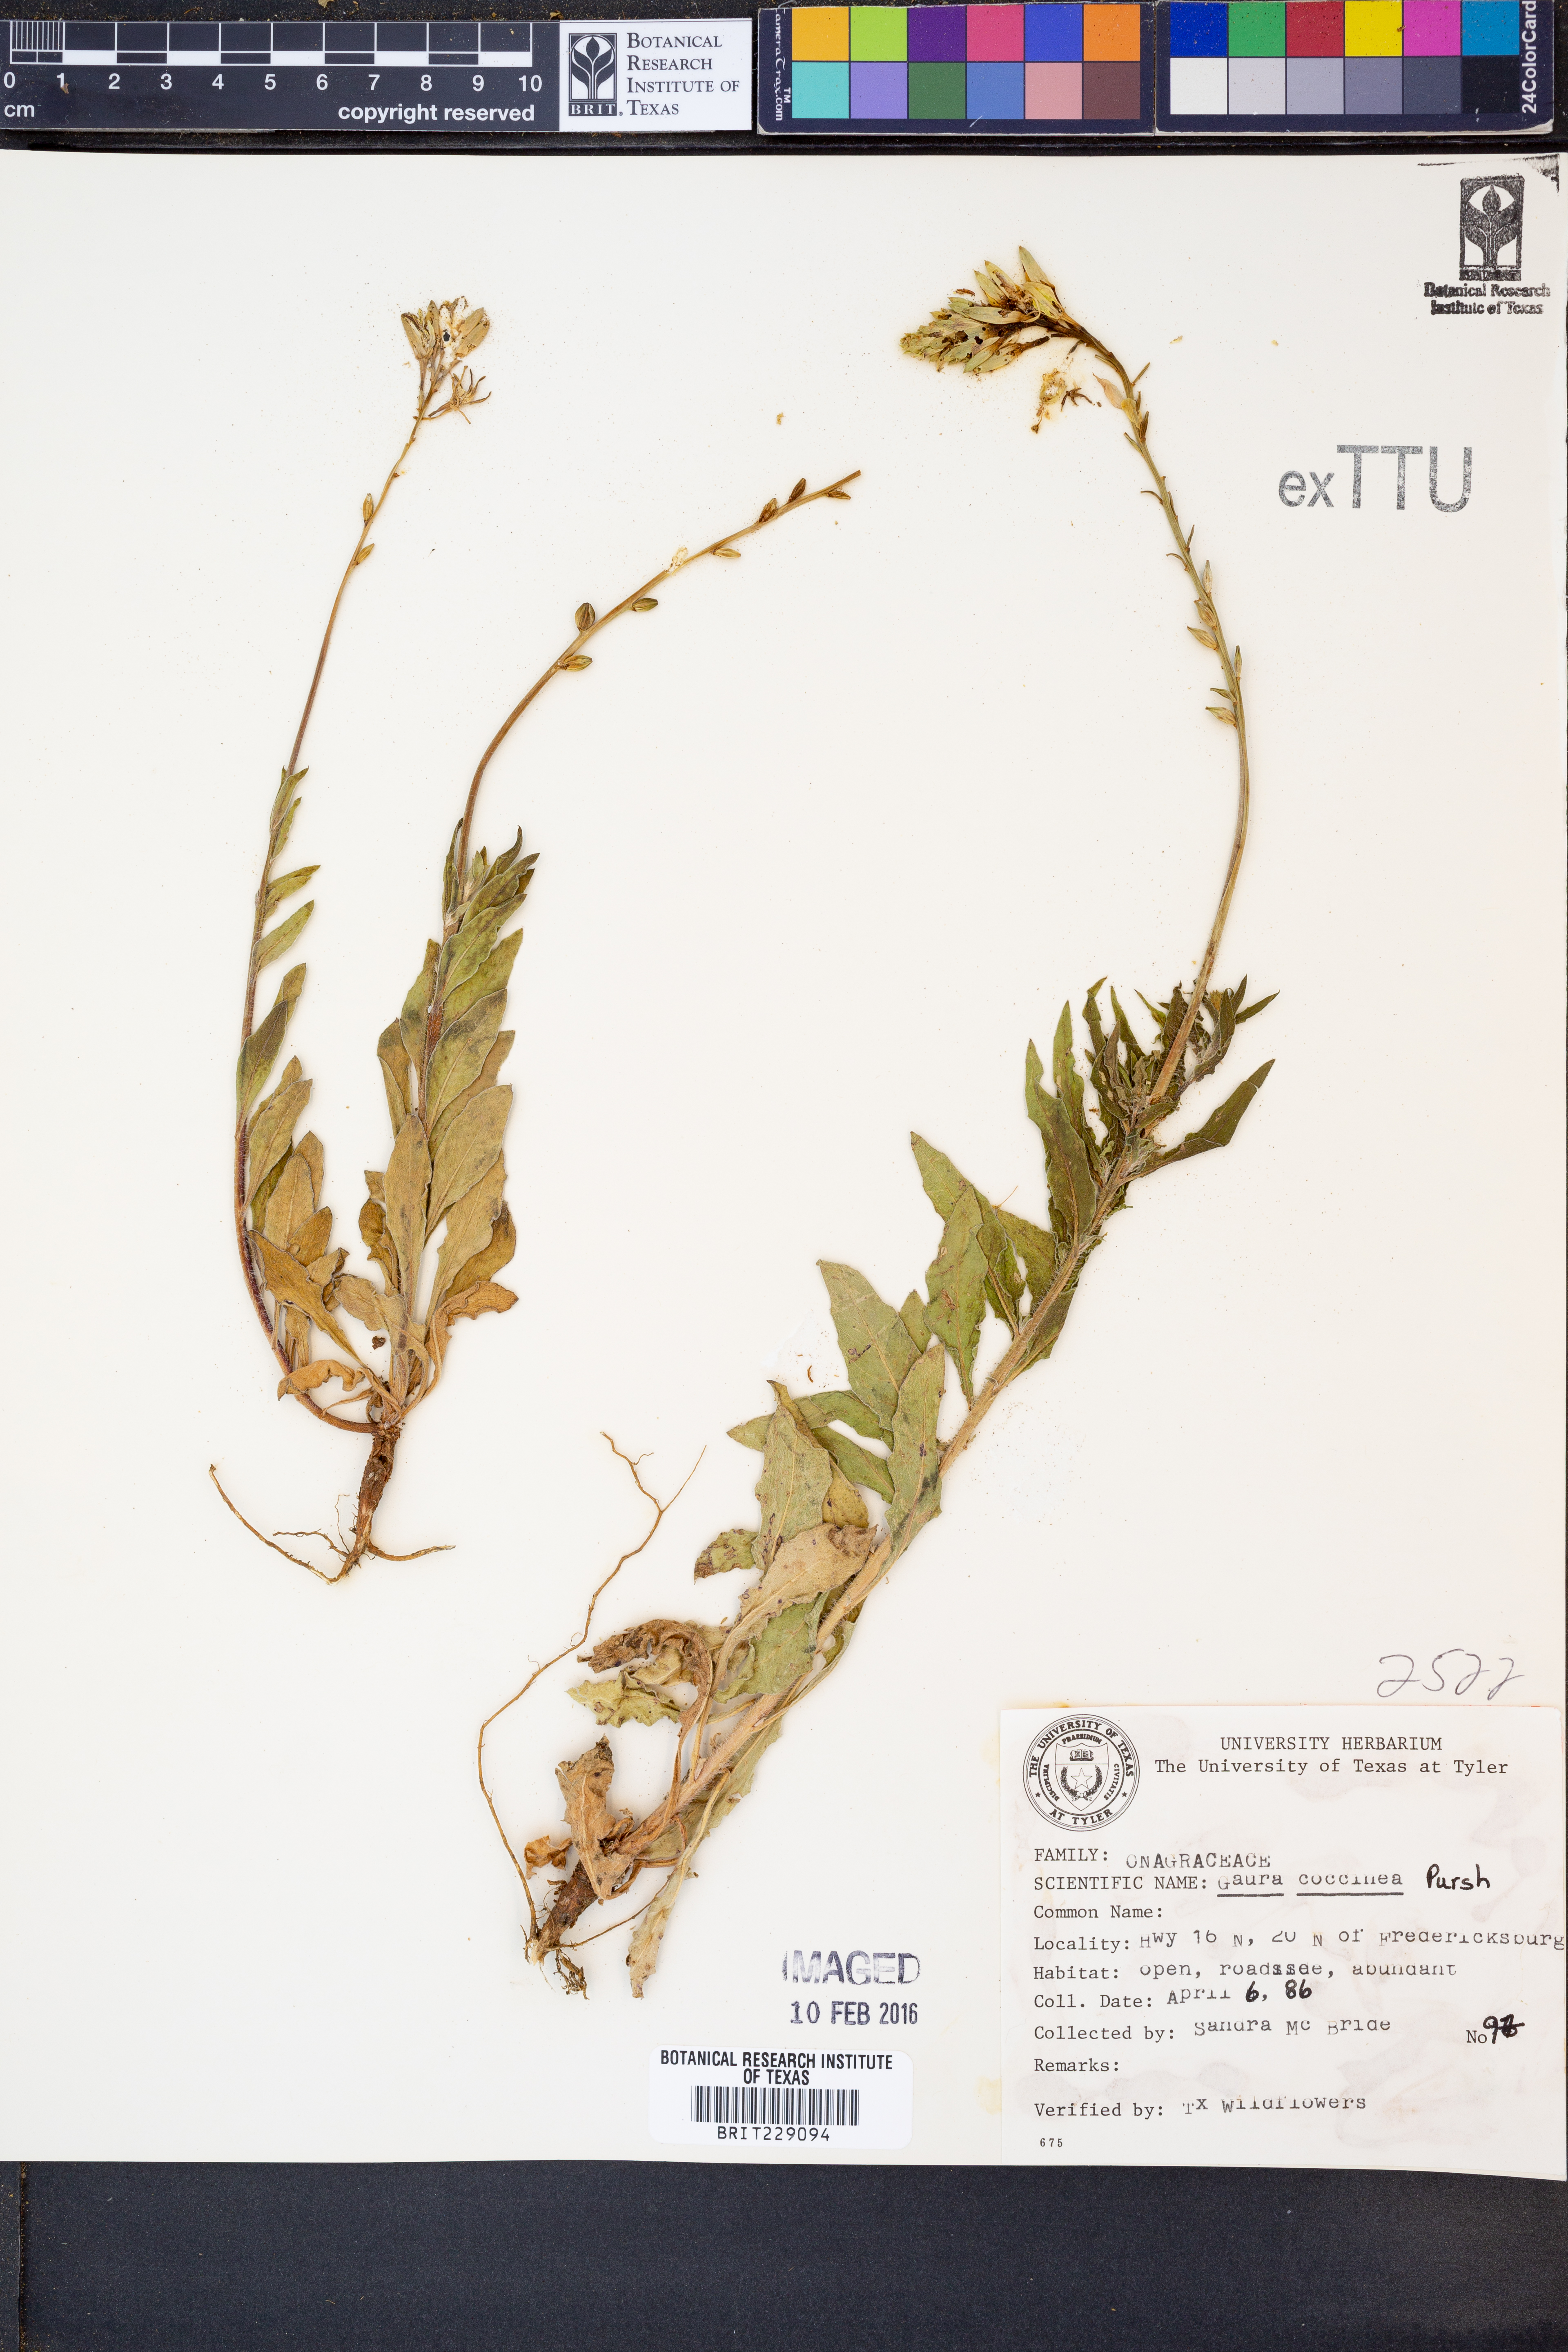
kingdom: Plantae
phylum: Tracheophyta
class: Magnoliopsida
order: Myrtales
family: Onagraceae
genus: Oenothera
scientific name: Oenothera suffrutescens
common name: Scarlet beeblossom
